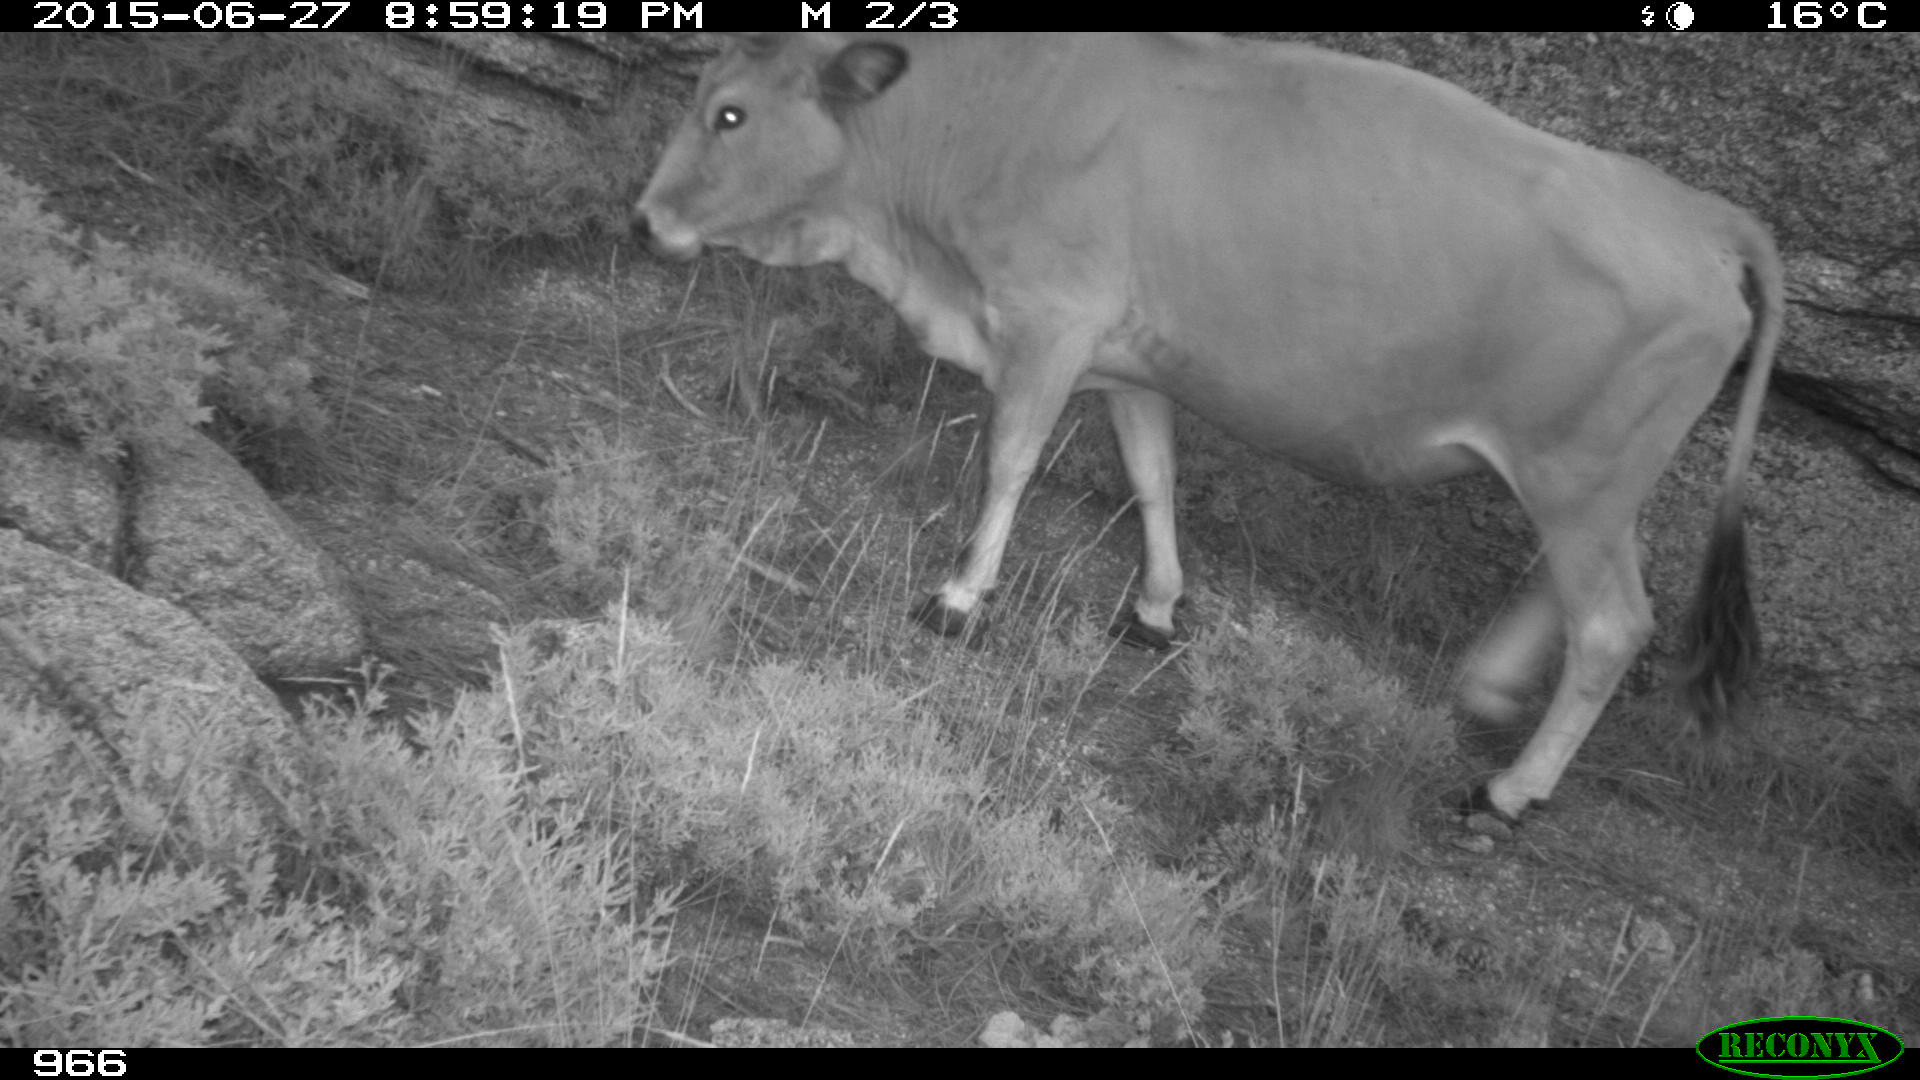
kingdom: Animalia
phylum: Chordata
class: Mammalia
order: Artiodactyla
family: Bovidae
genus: Bos
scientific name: Bos taurus
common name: Domesticated cattle
